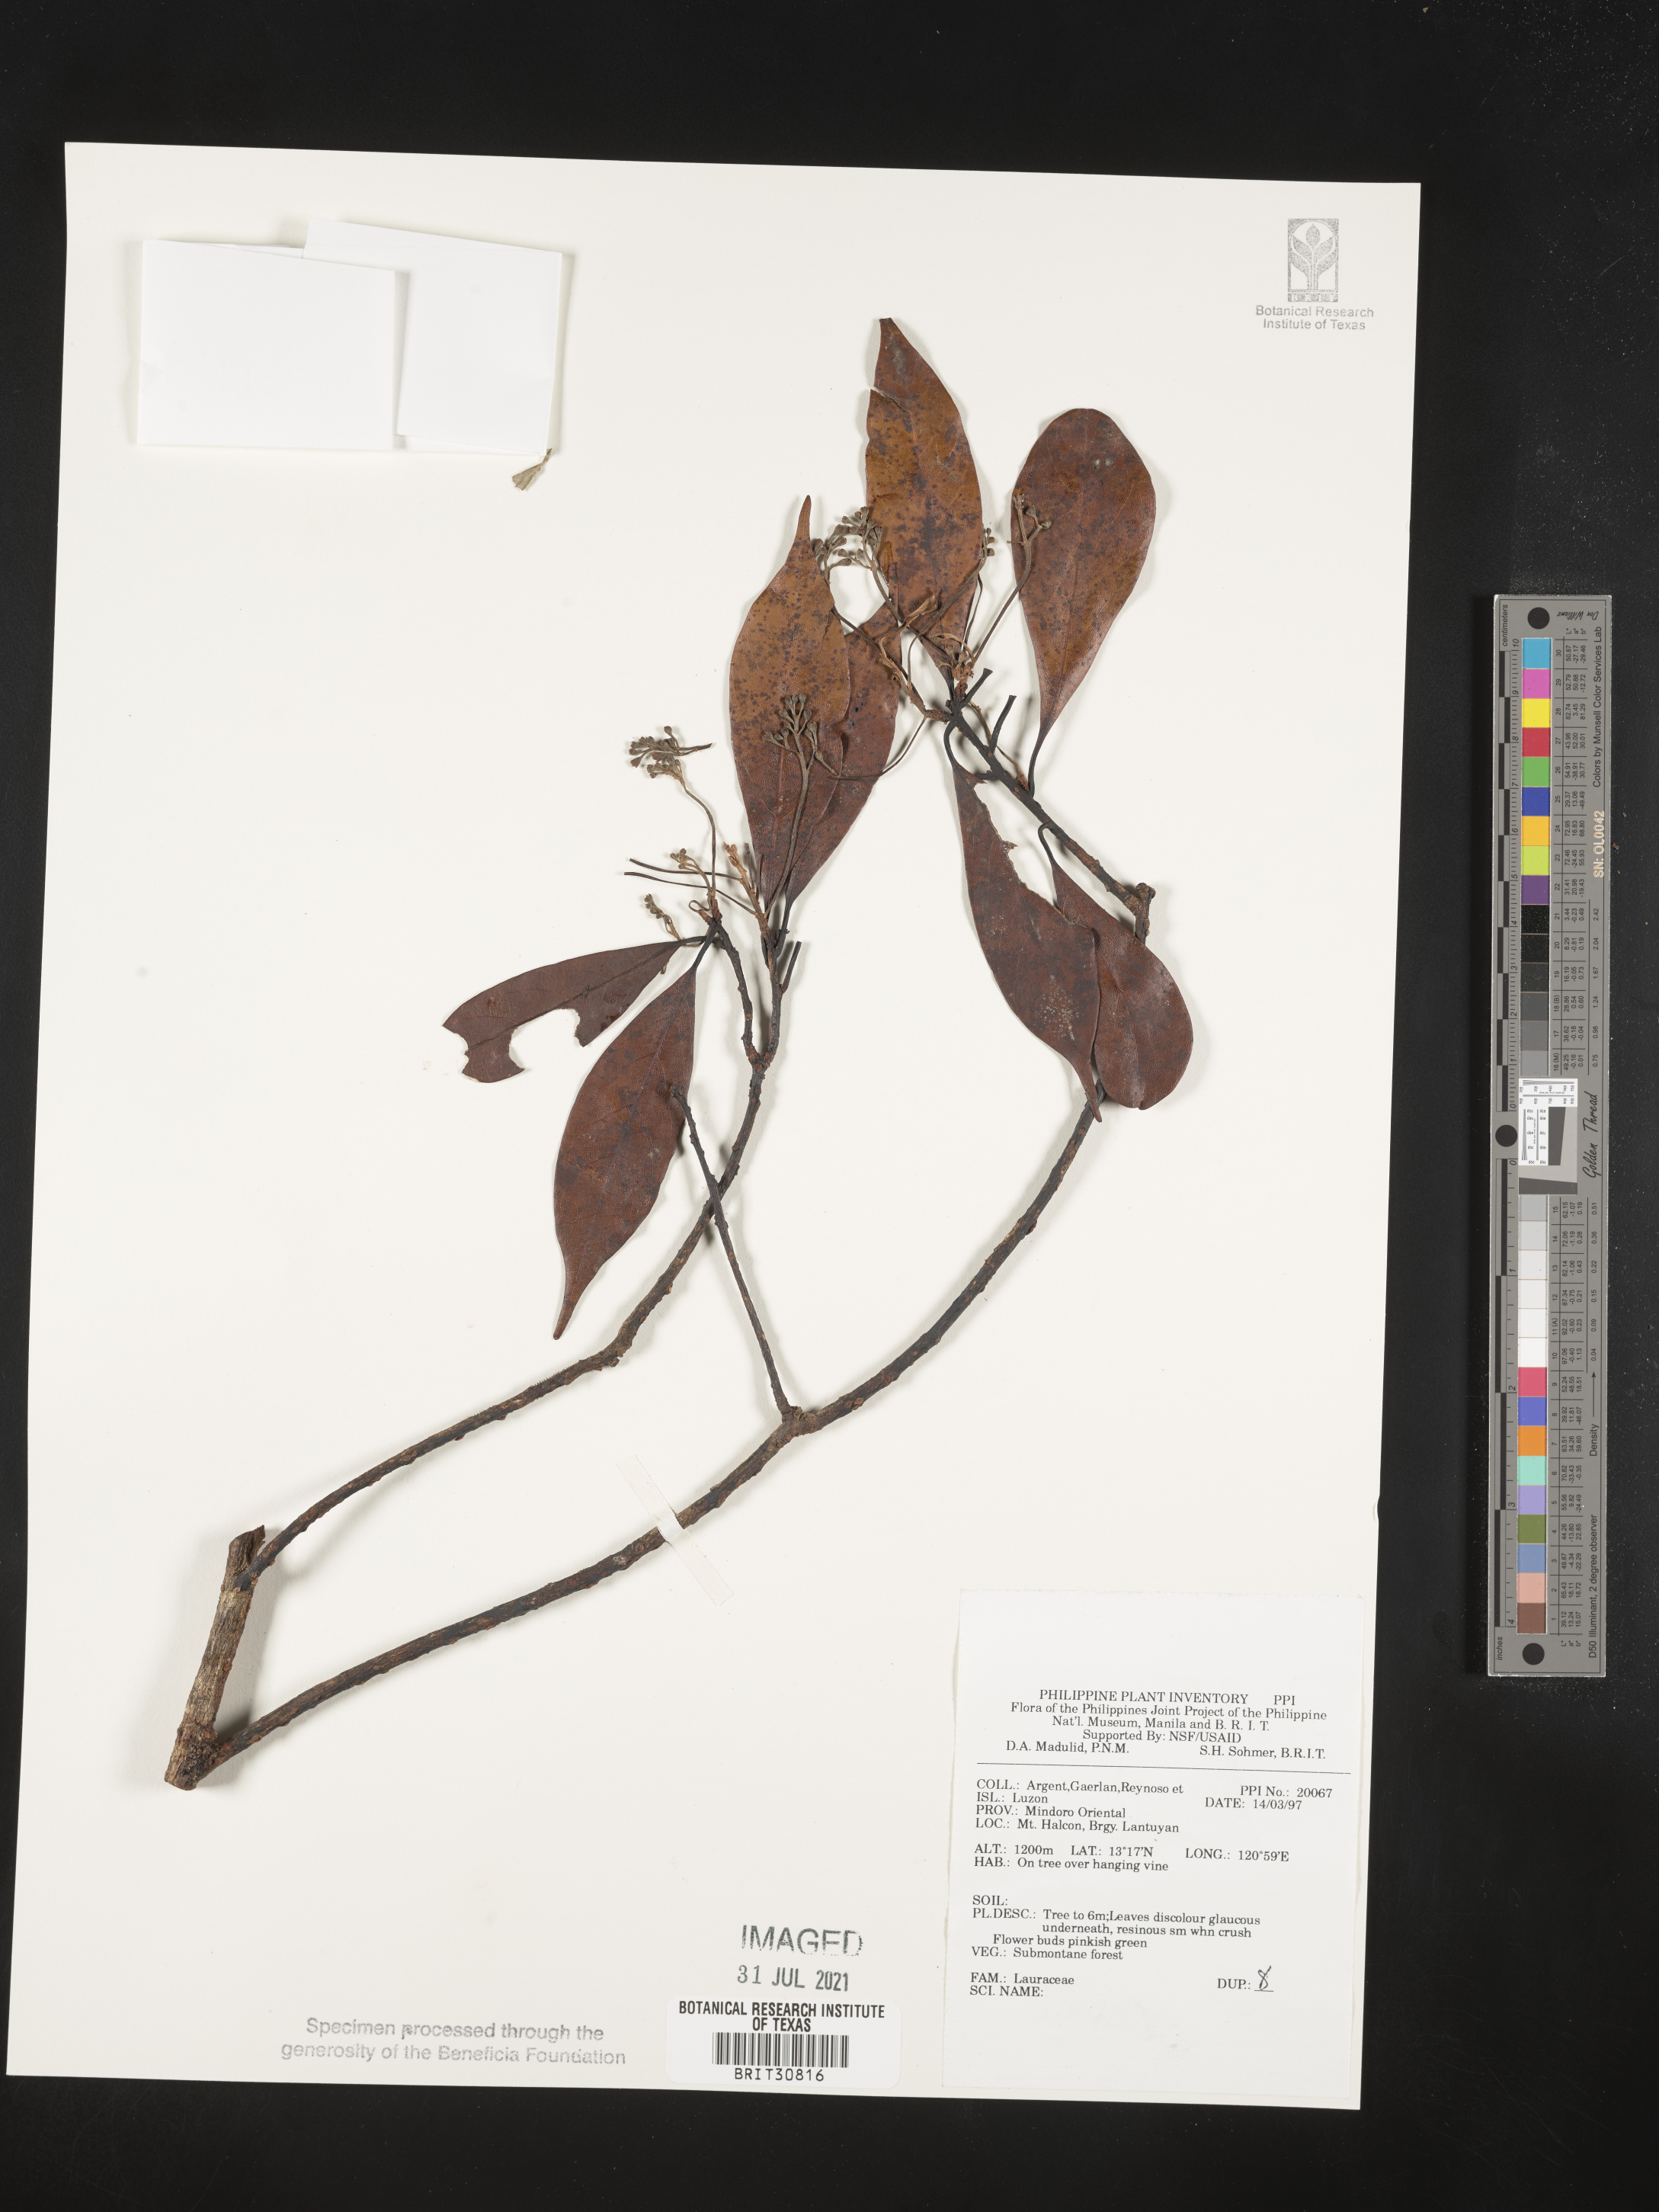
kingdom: Plantae
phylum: Tracheophyta
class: Magnoliopsida
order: Laurales
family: Lauraceae
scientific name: Lauraceae
